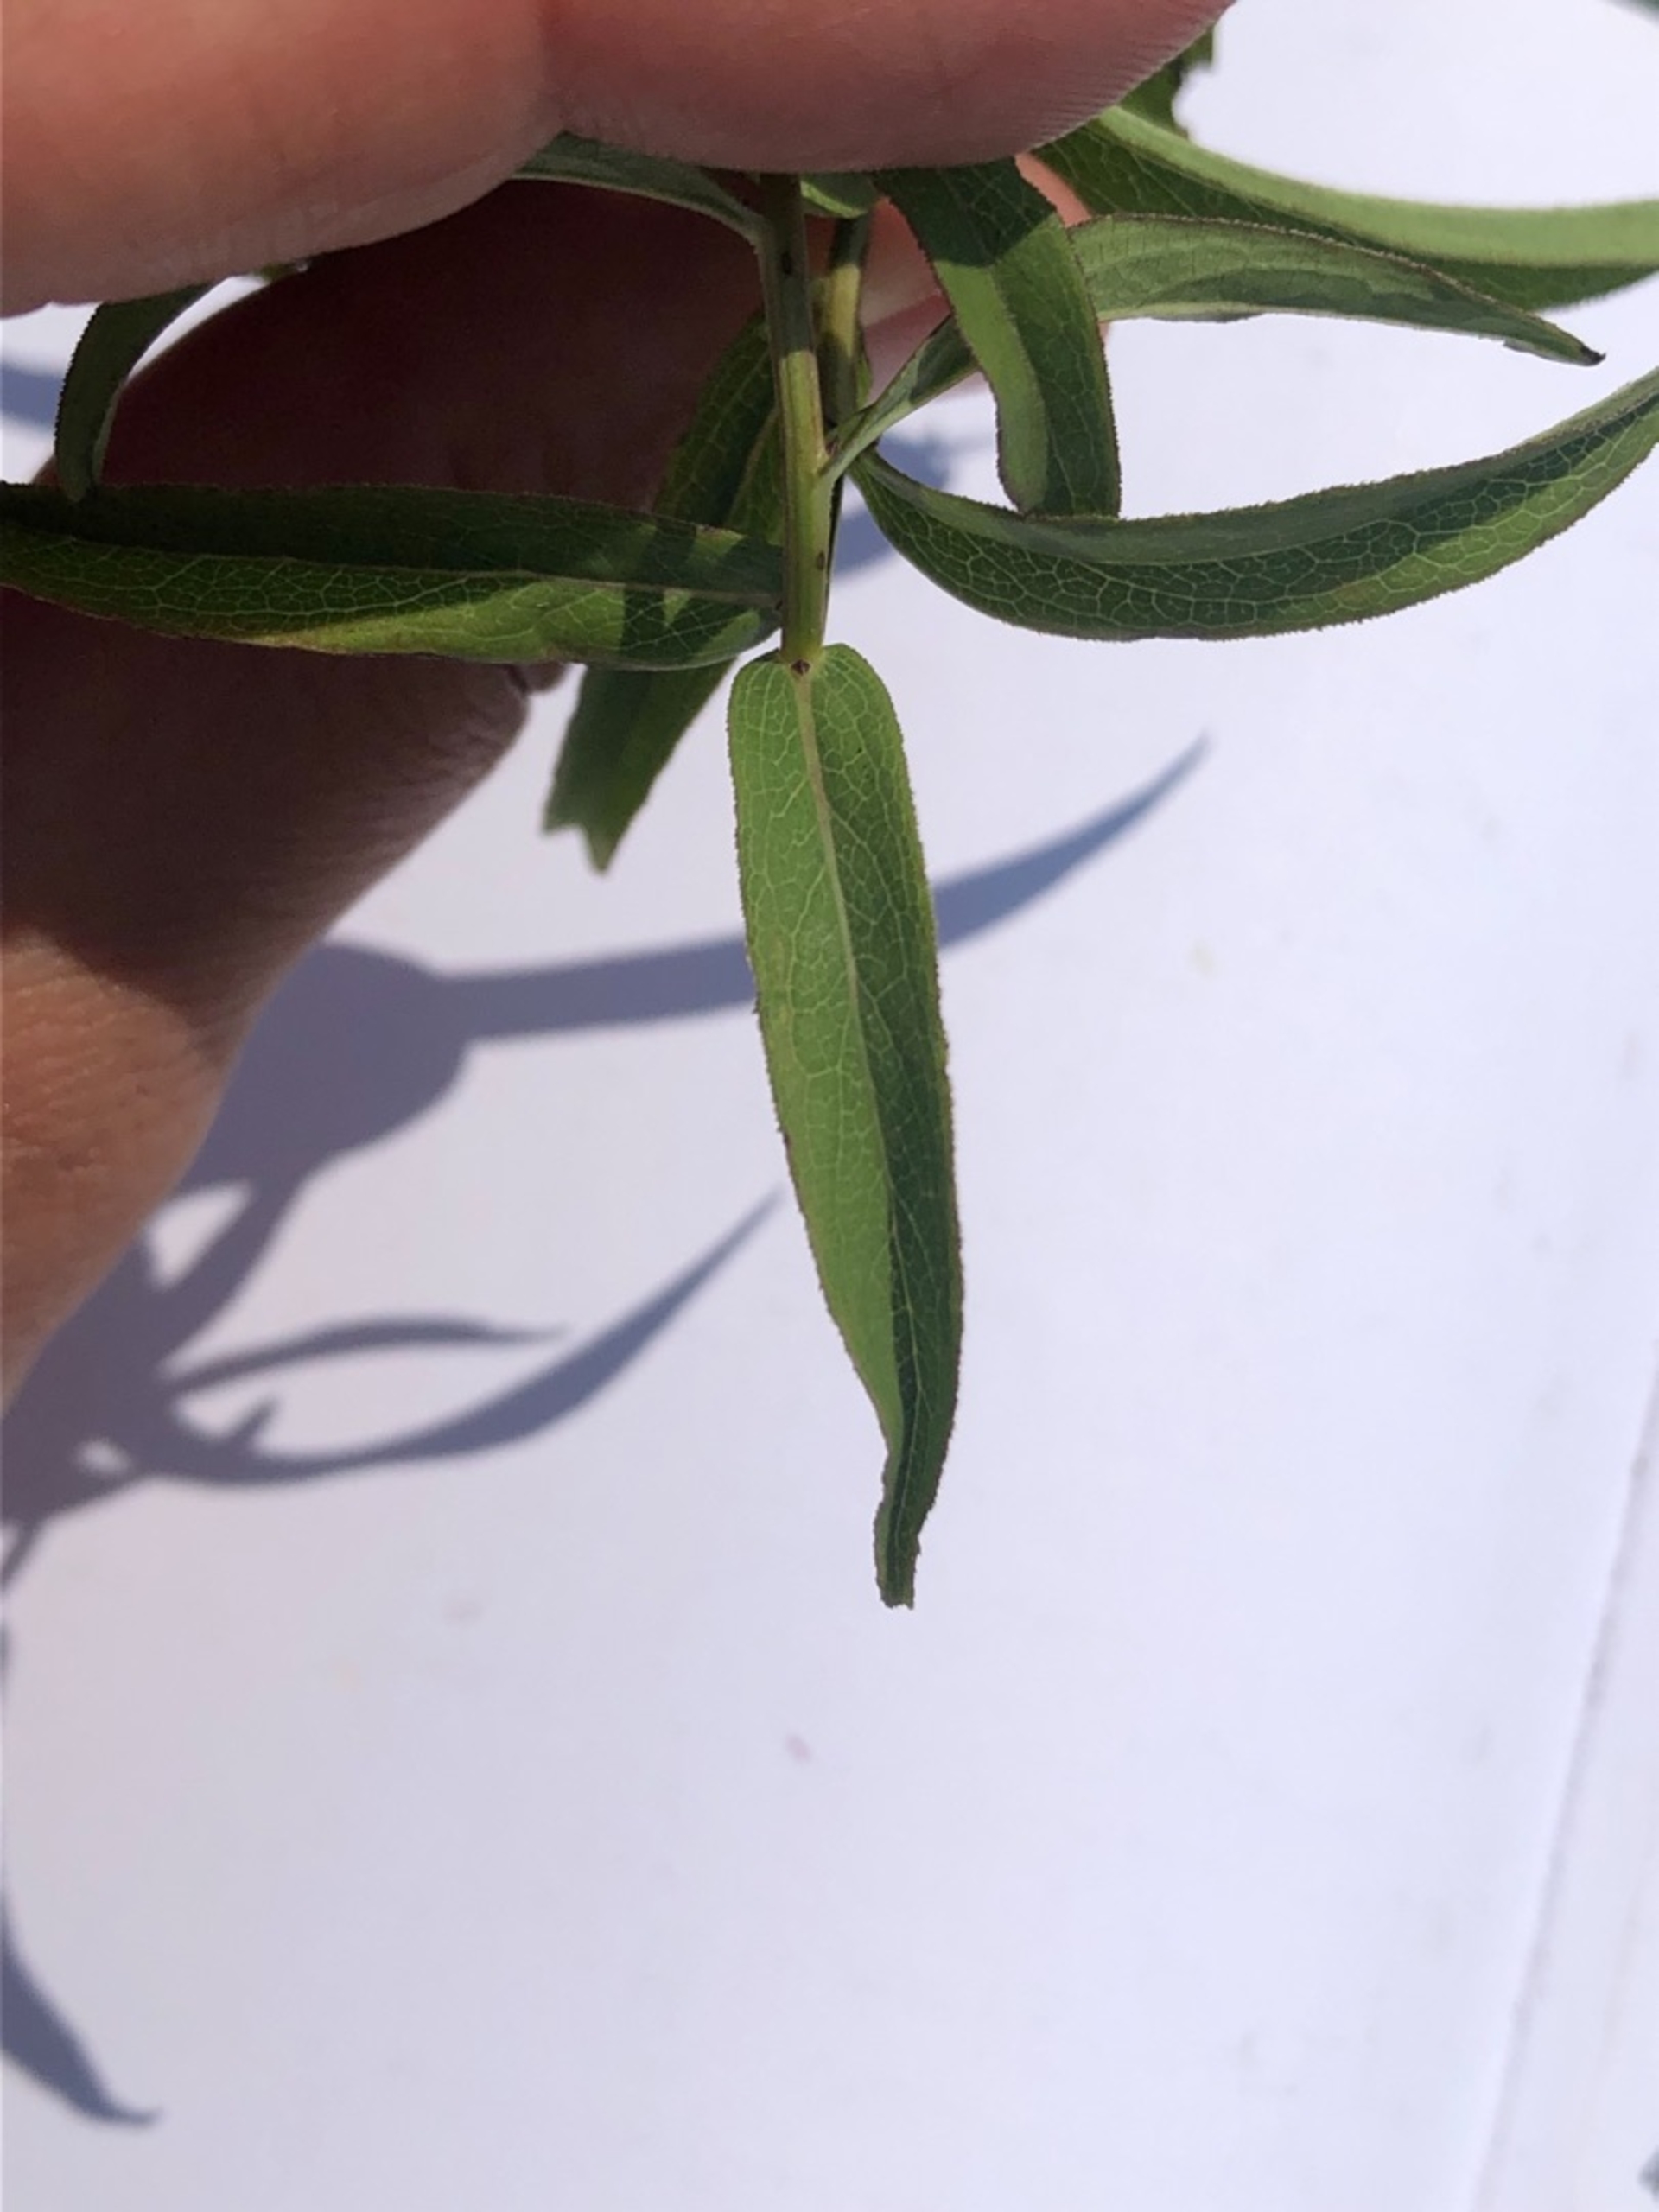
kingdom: Plantae
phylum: Tracheophyta
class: Magnoliopsida
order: Asterales
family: Asteraceae
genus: Pentanema
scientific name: Pentanema salicinum
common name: Pile-alant
